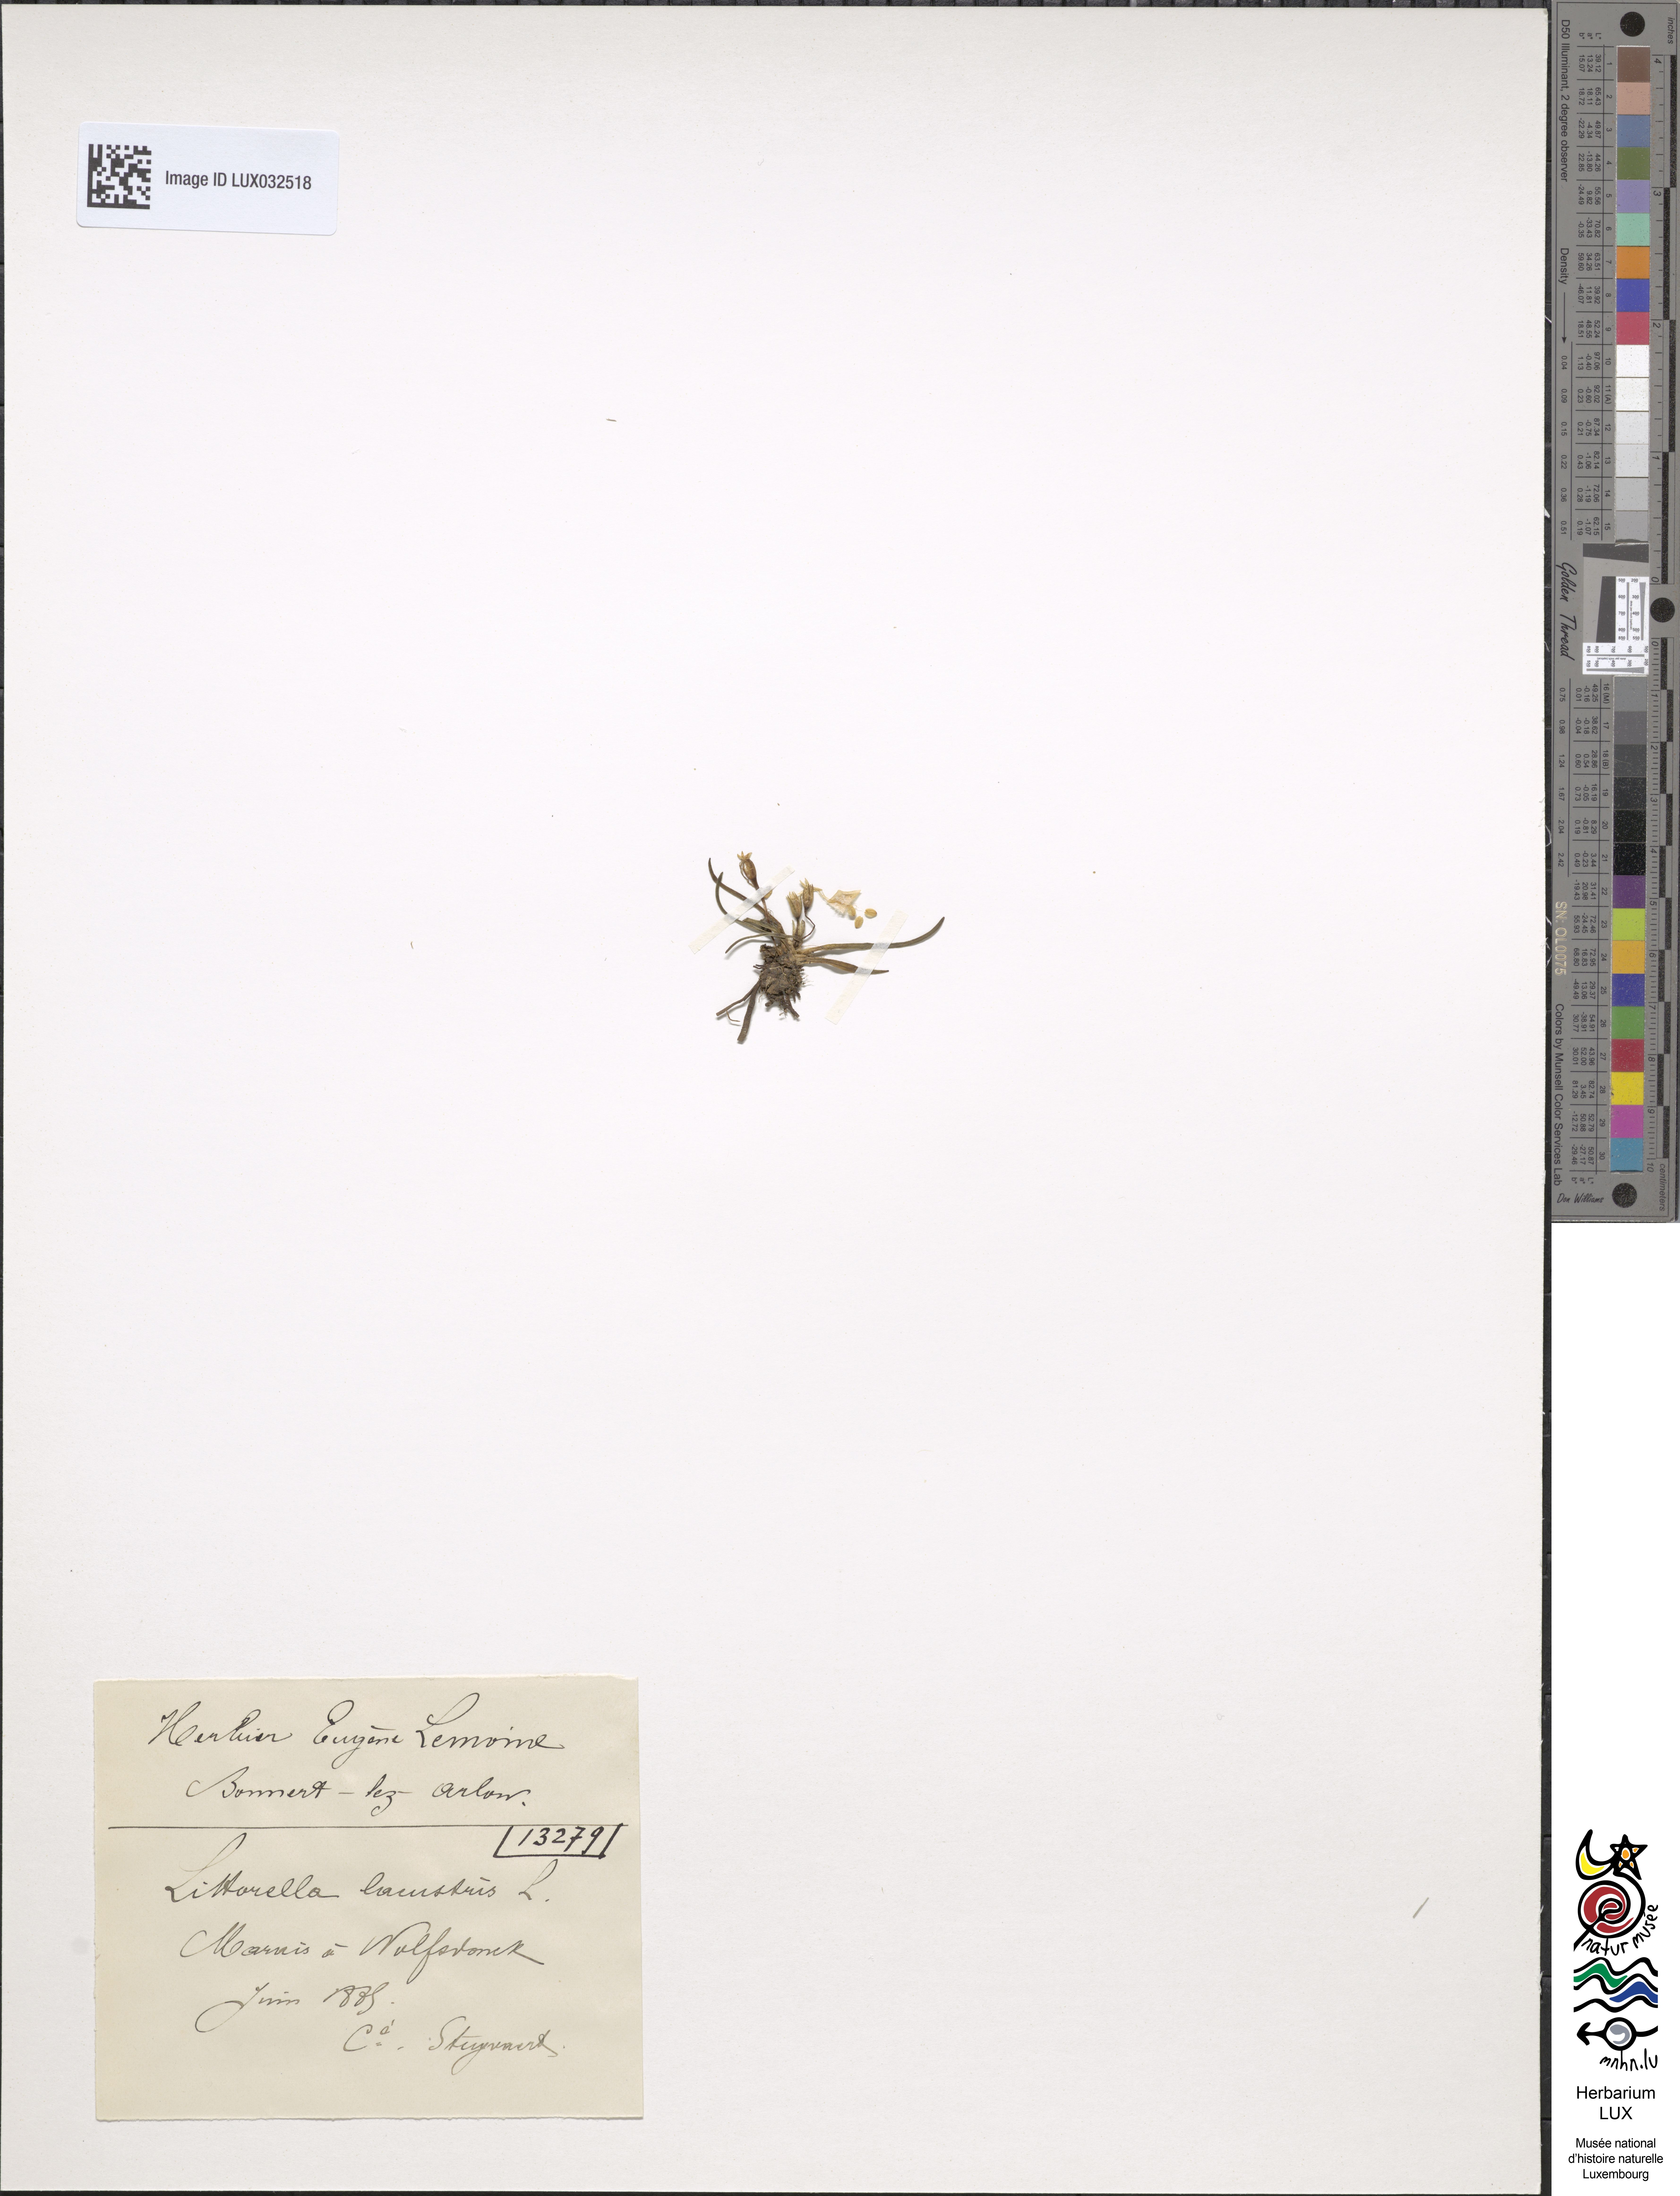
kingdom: Plantae
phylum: Tracheophyta
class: Magnoliopsida
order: Lamiales
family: Plantaginaceae
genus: Littorella
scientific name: Littorella uniflora
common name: Shoreweed
